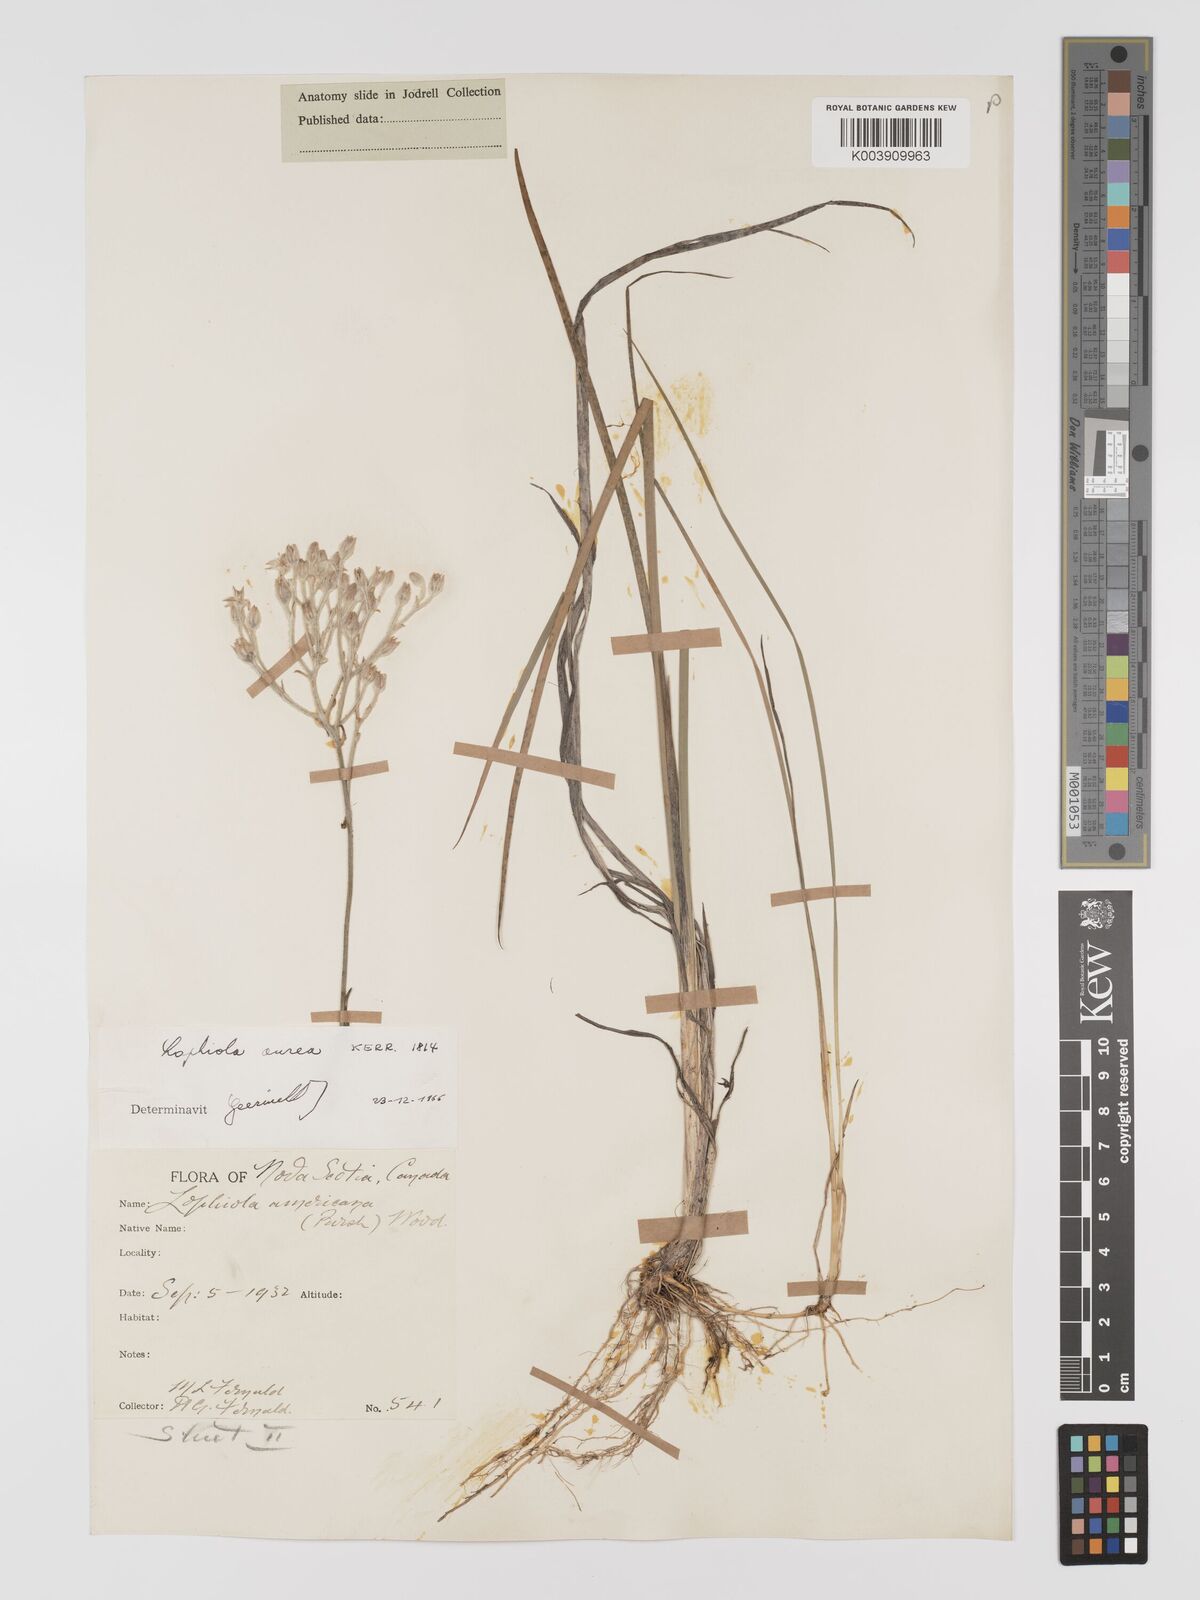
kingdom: Plantae
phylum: Tracheophyta
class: Liliopsida
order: Dioscoreales
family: Nartheciaceae
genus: Lophiola
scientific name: Lophiola aurea
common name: Golden-crest
